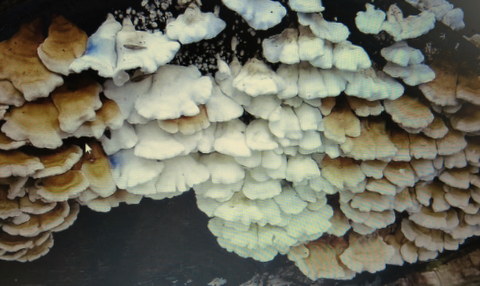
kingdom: Fungi
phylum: Basidiomycota
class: Agaricomycetes
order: Amylocorticiales
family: Amylocorticiaceae
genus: Plicaturopsis
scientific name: Plicaturopsis crispa
